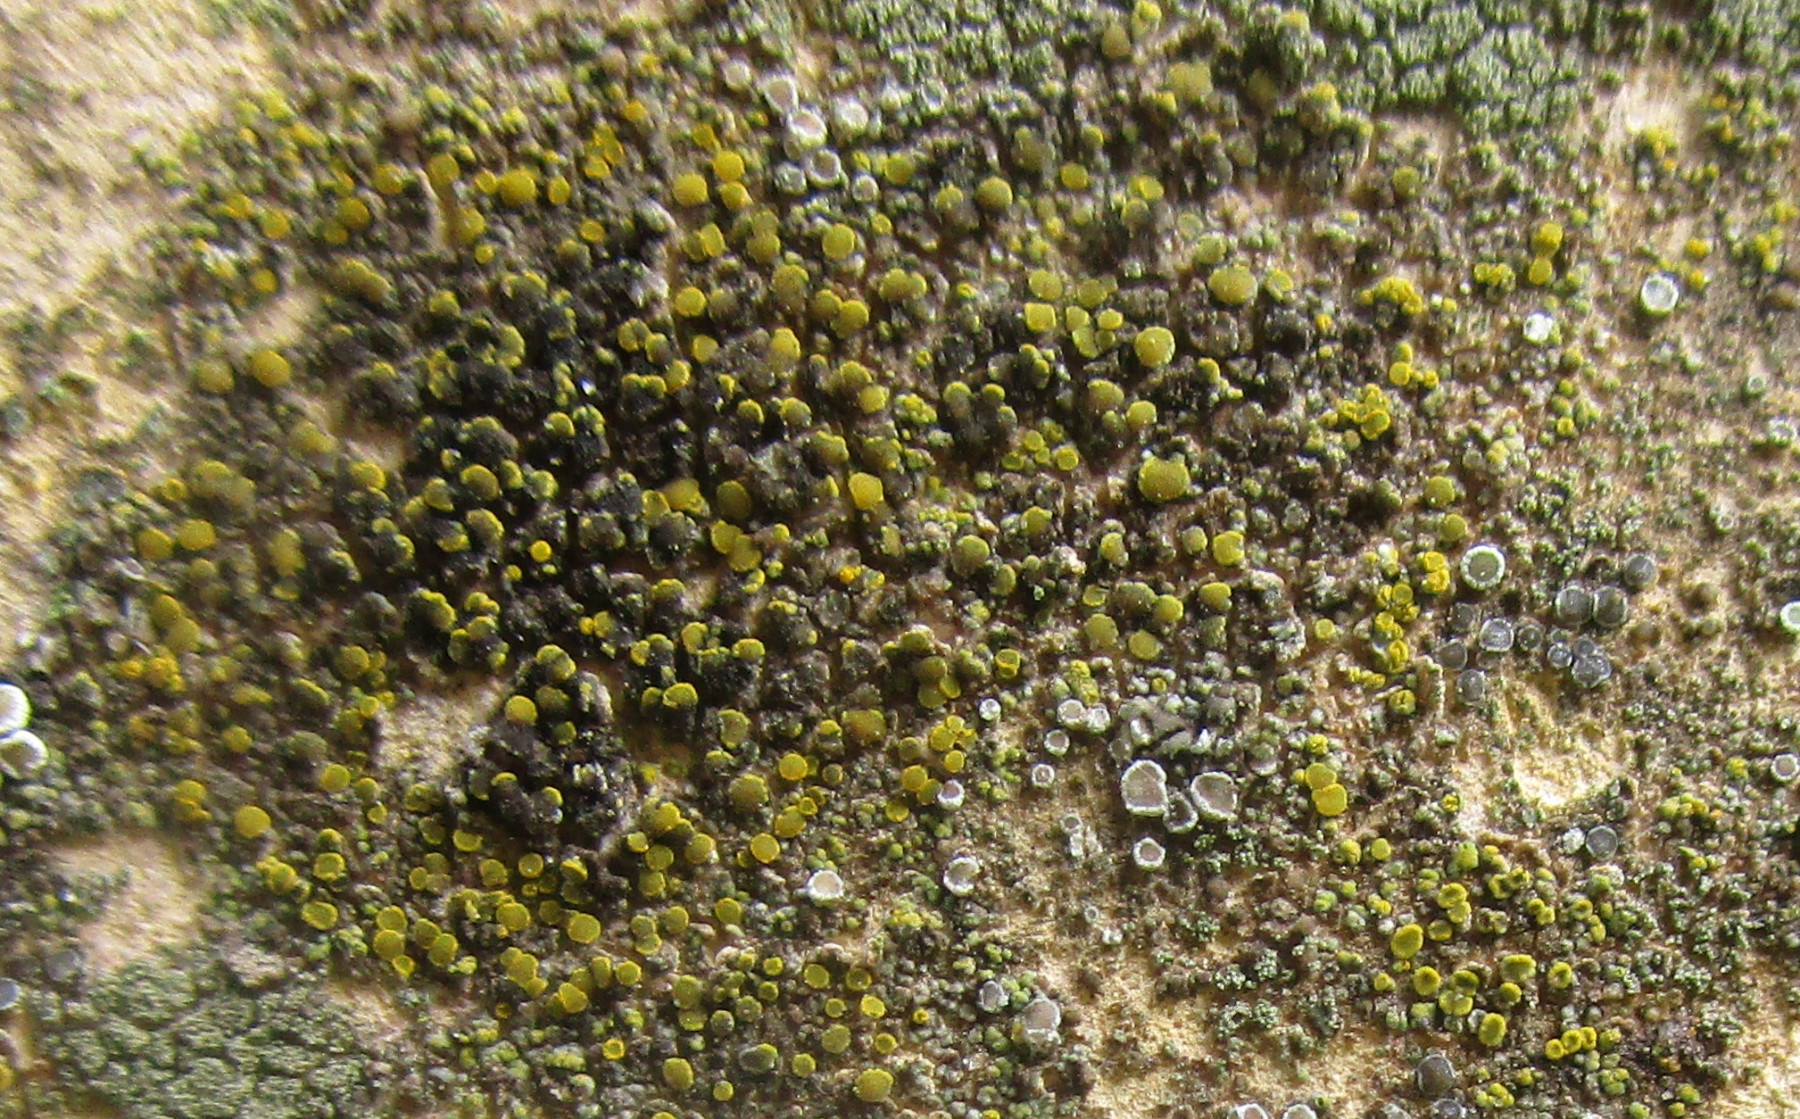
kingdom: Fungi
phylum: Ascomycota
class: Candelariomycetes
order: Candelariales
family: Candelariaceae
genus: Candelariella
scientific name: Candelariella aurella
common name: liden æggeblommelav
